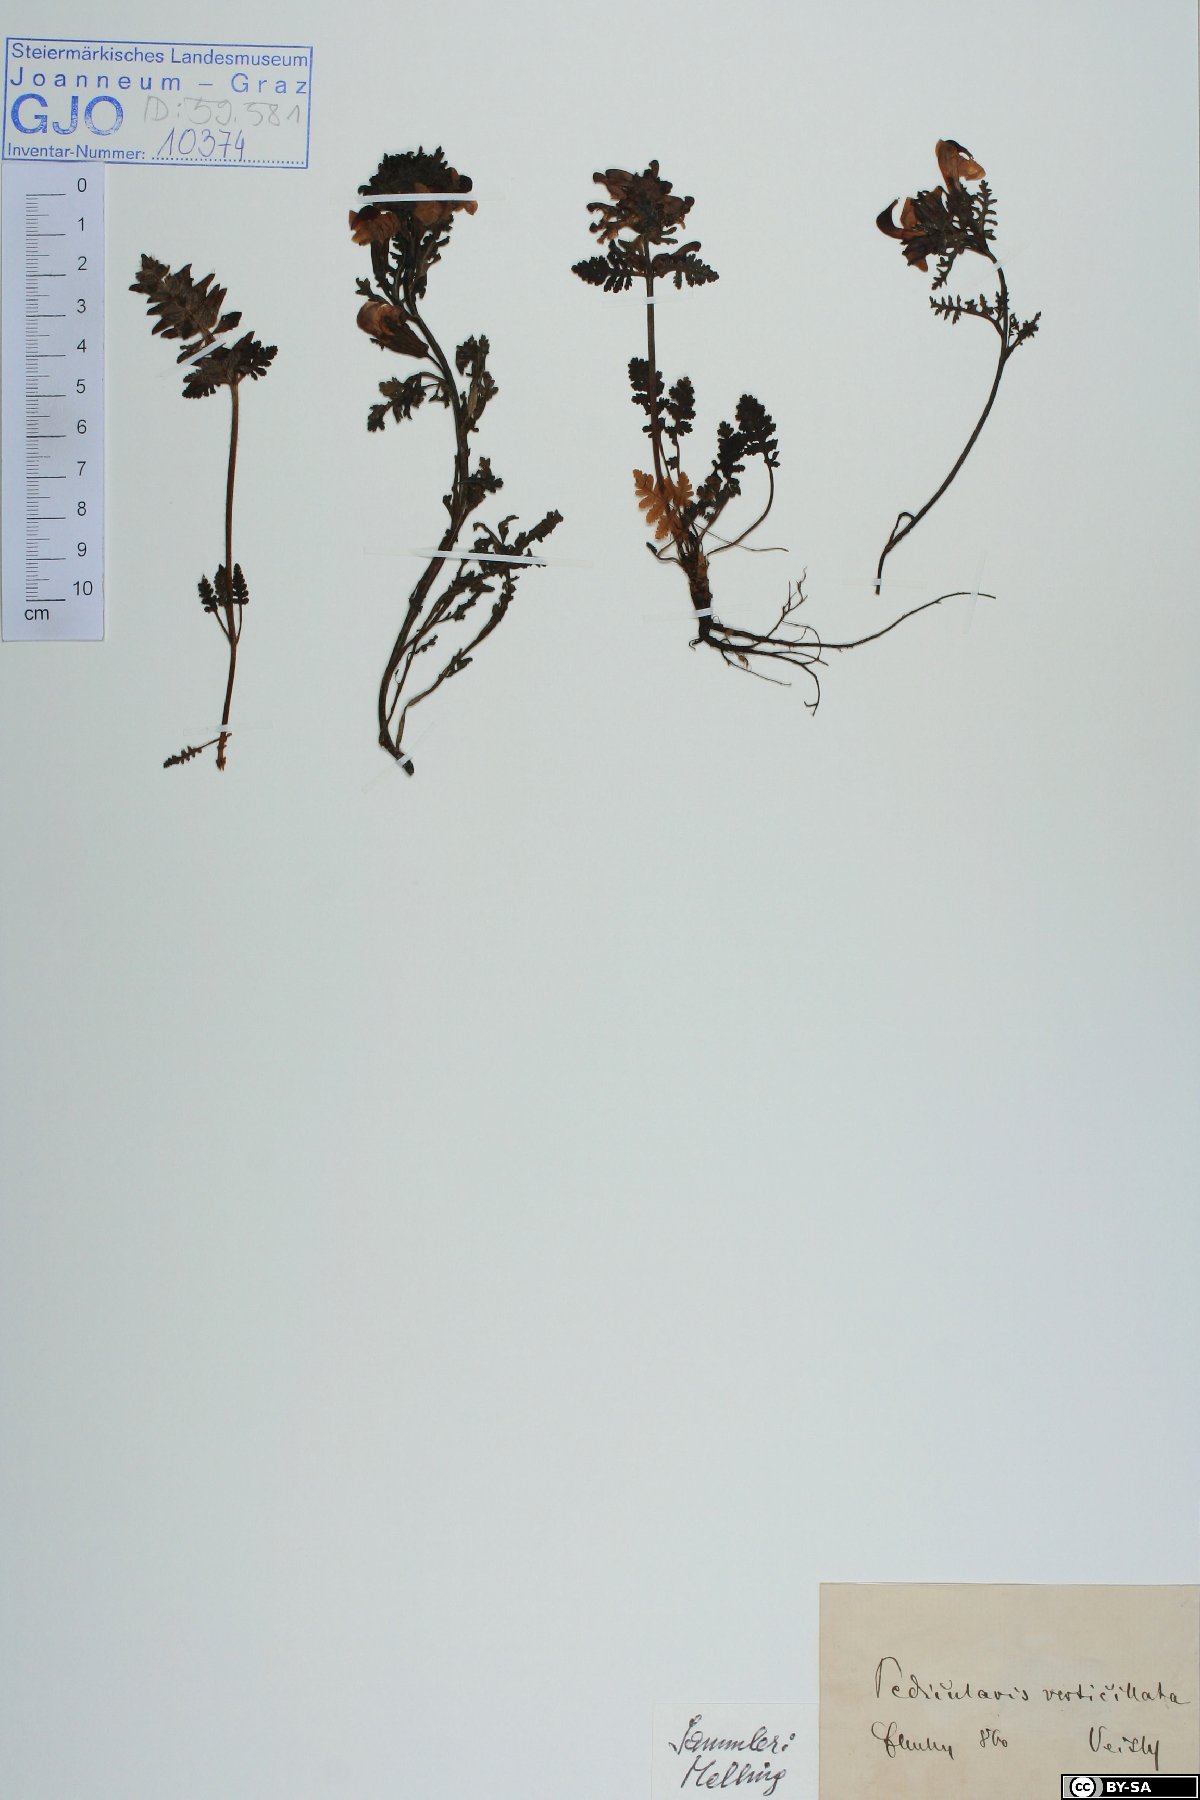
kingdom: Plantae
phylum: Tracheophyta
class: Magnoliopsida
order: Lamiales
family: Orobanchaceae
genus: Pedicularis
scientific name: Pedicularis verticillata
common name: Whorled lousewort
